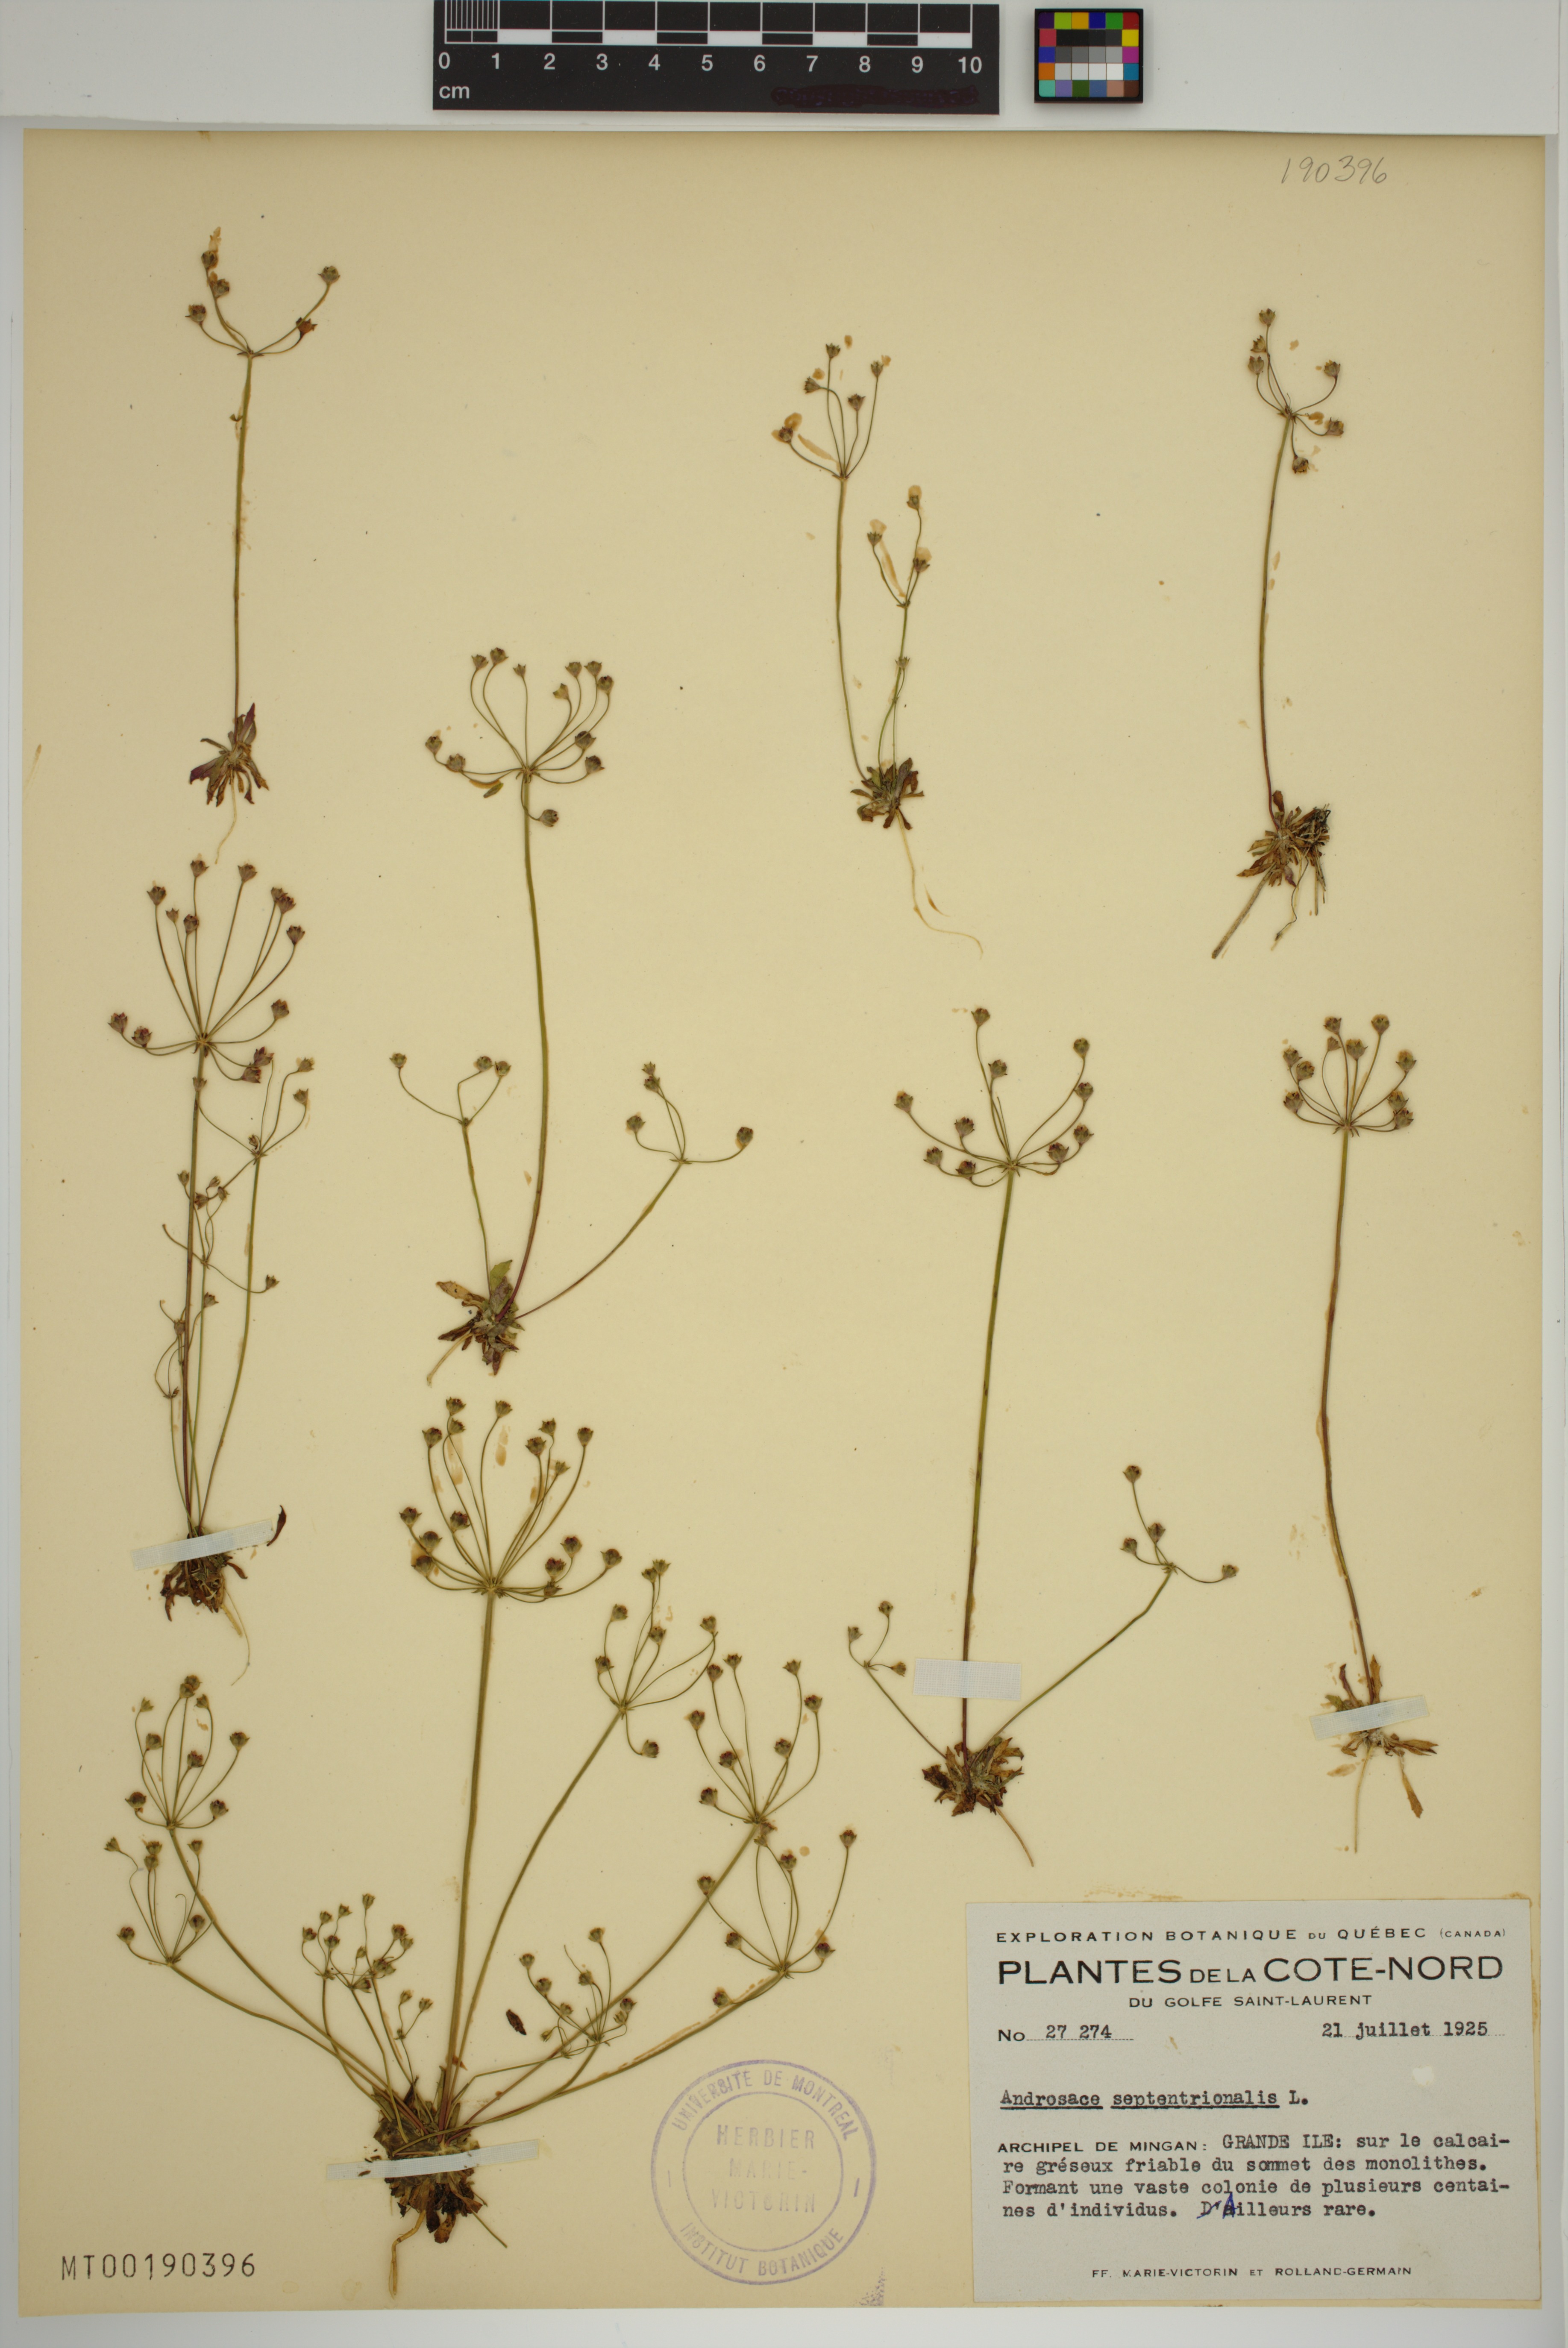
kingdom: Plantae
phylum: Tracheophyta
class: Magnoliopsida
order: Ericales
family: Primulaceae
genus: Androsace
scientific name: Androsace septentrionalis
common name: Hairy northern fairy-candelabra
